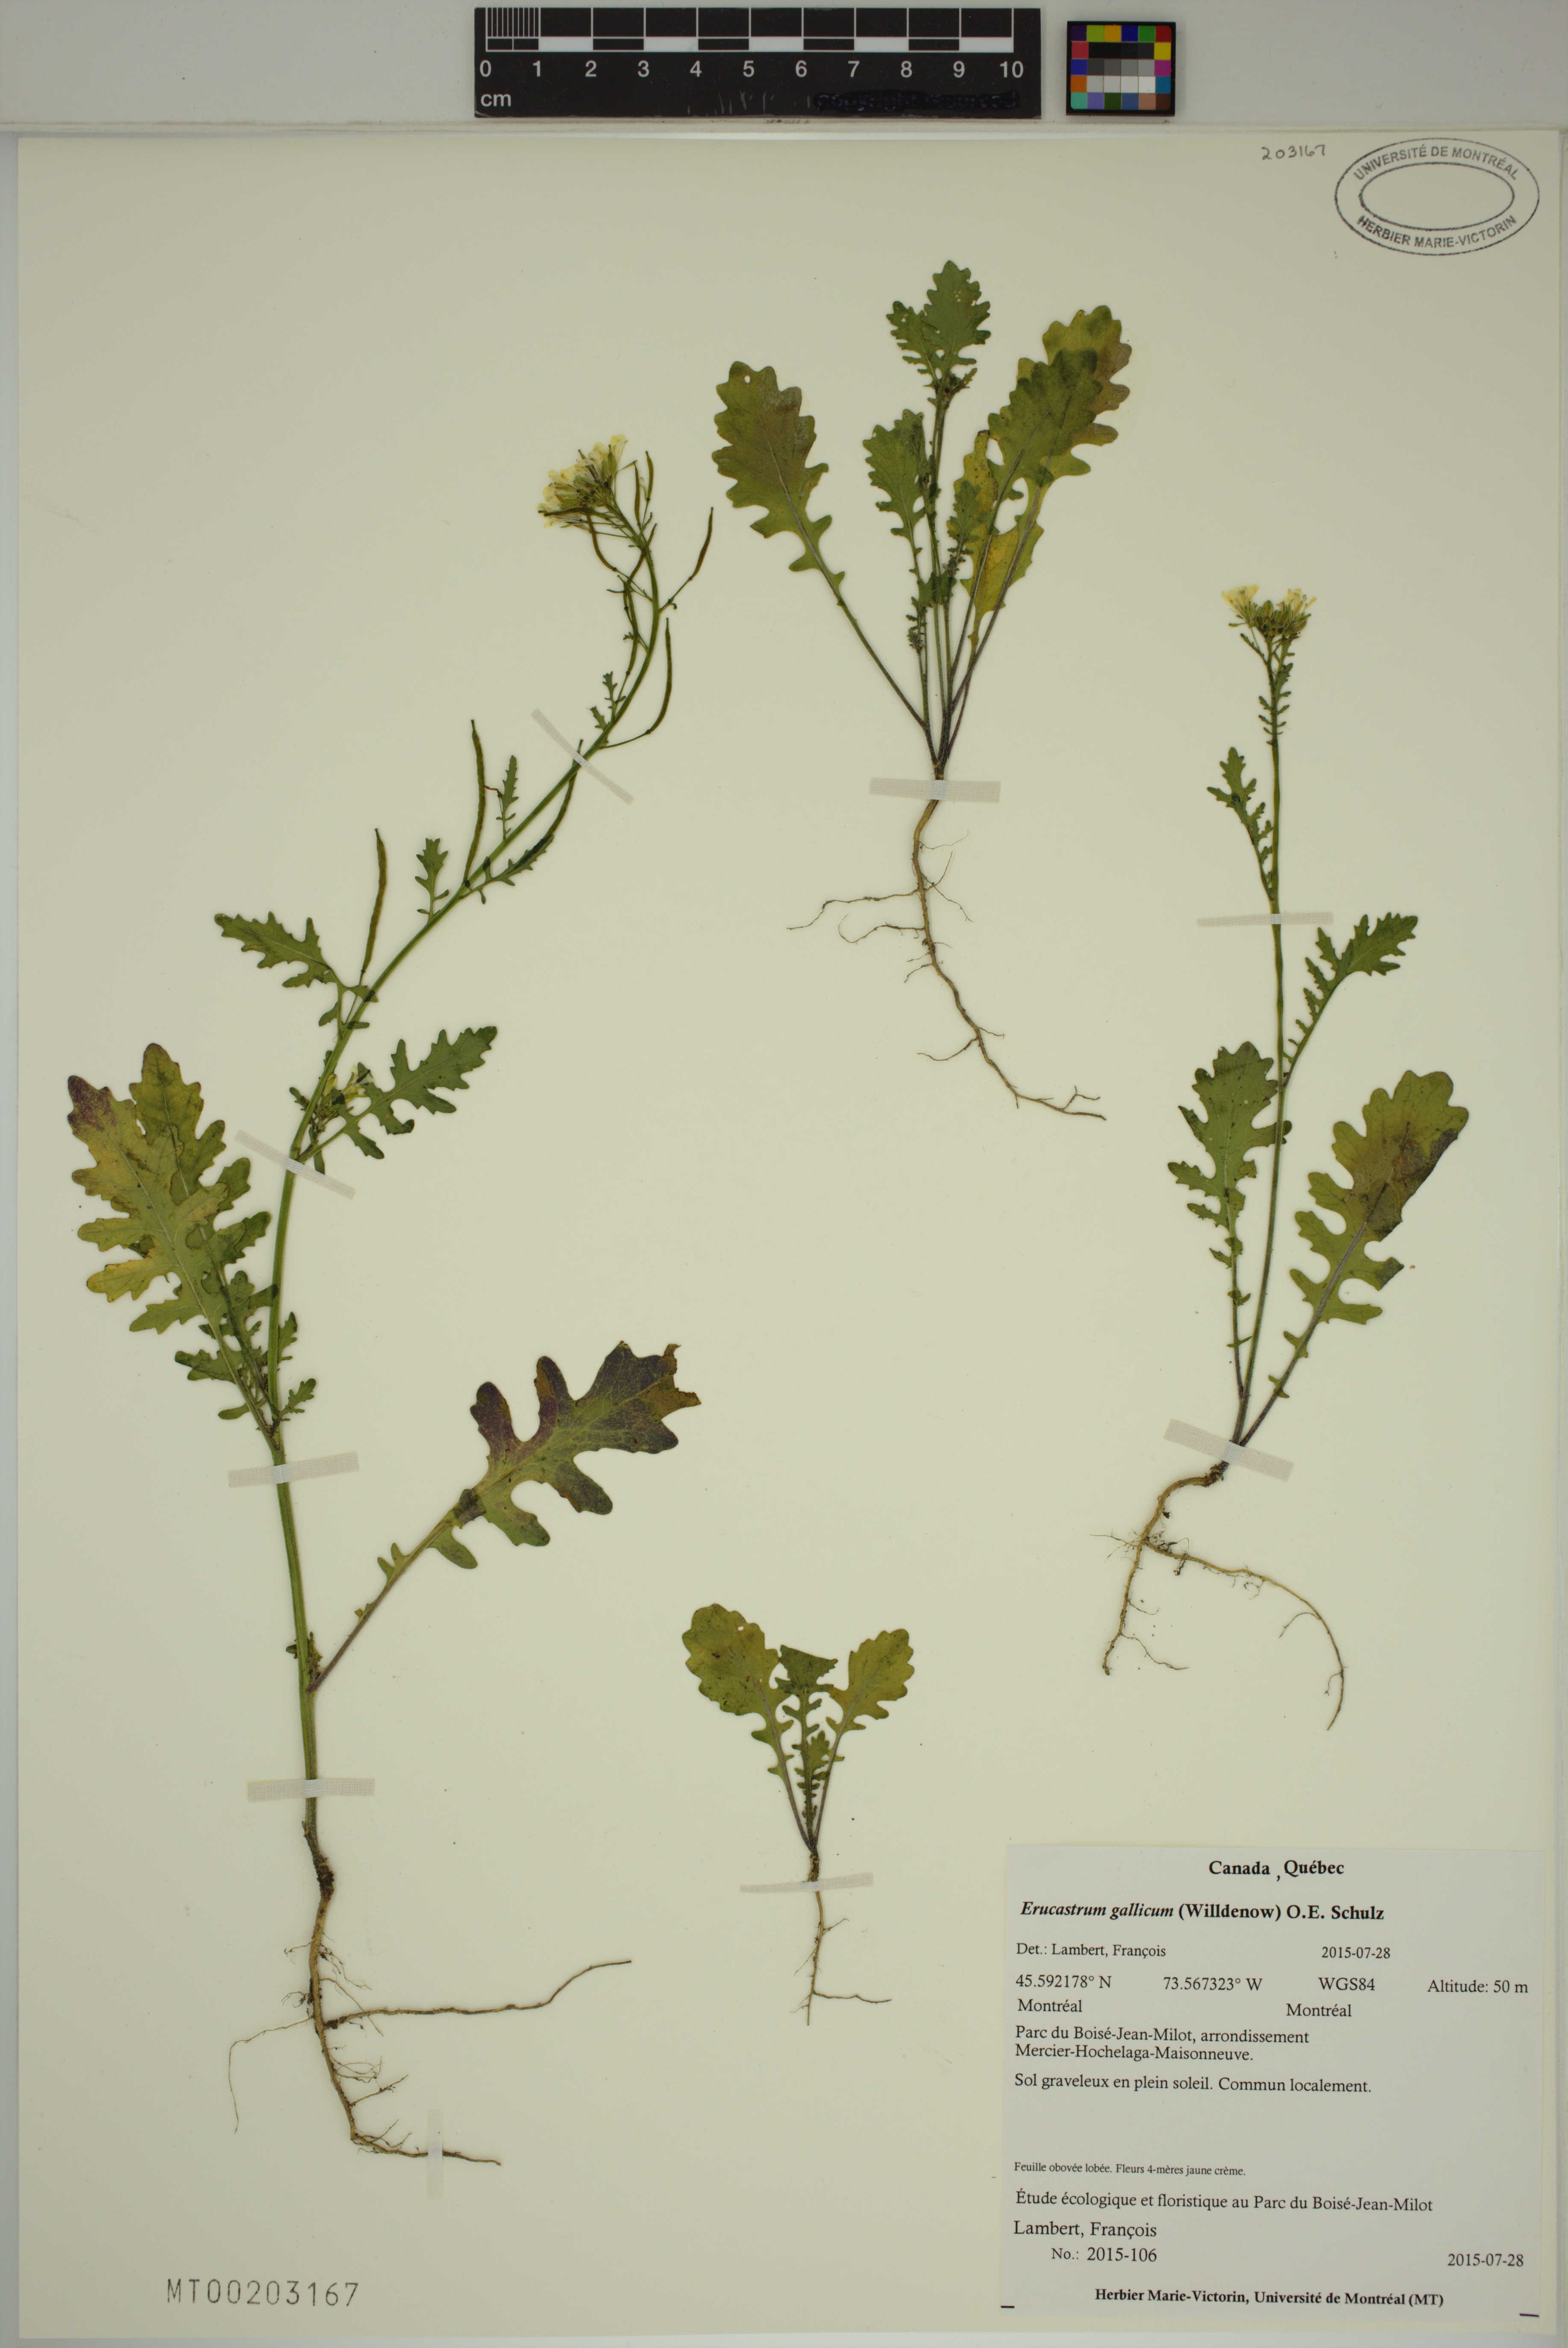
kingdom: Plantae
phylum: Tracheophyta
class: Magnoliopsida
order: Brassicales
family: Brassicaceae
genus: Erucastrum
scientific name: Erucastrum gallicum
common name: Hairy rocket
